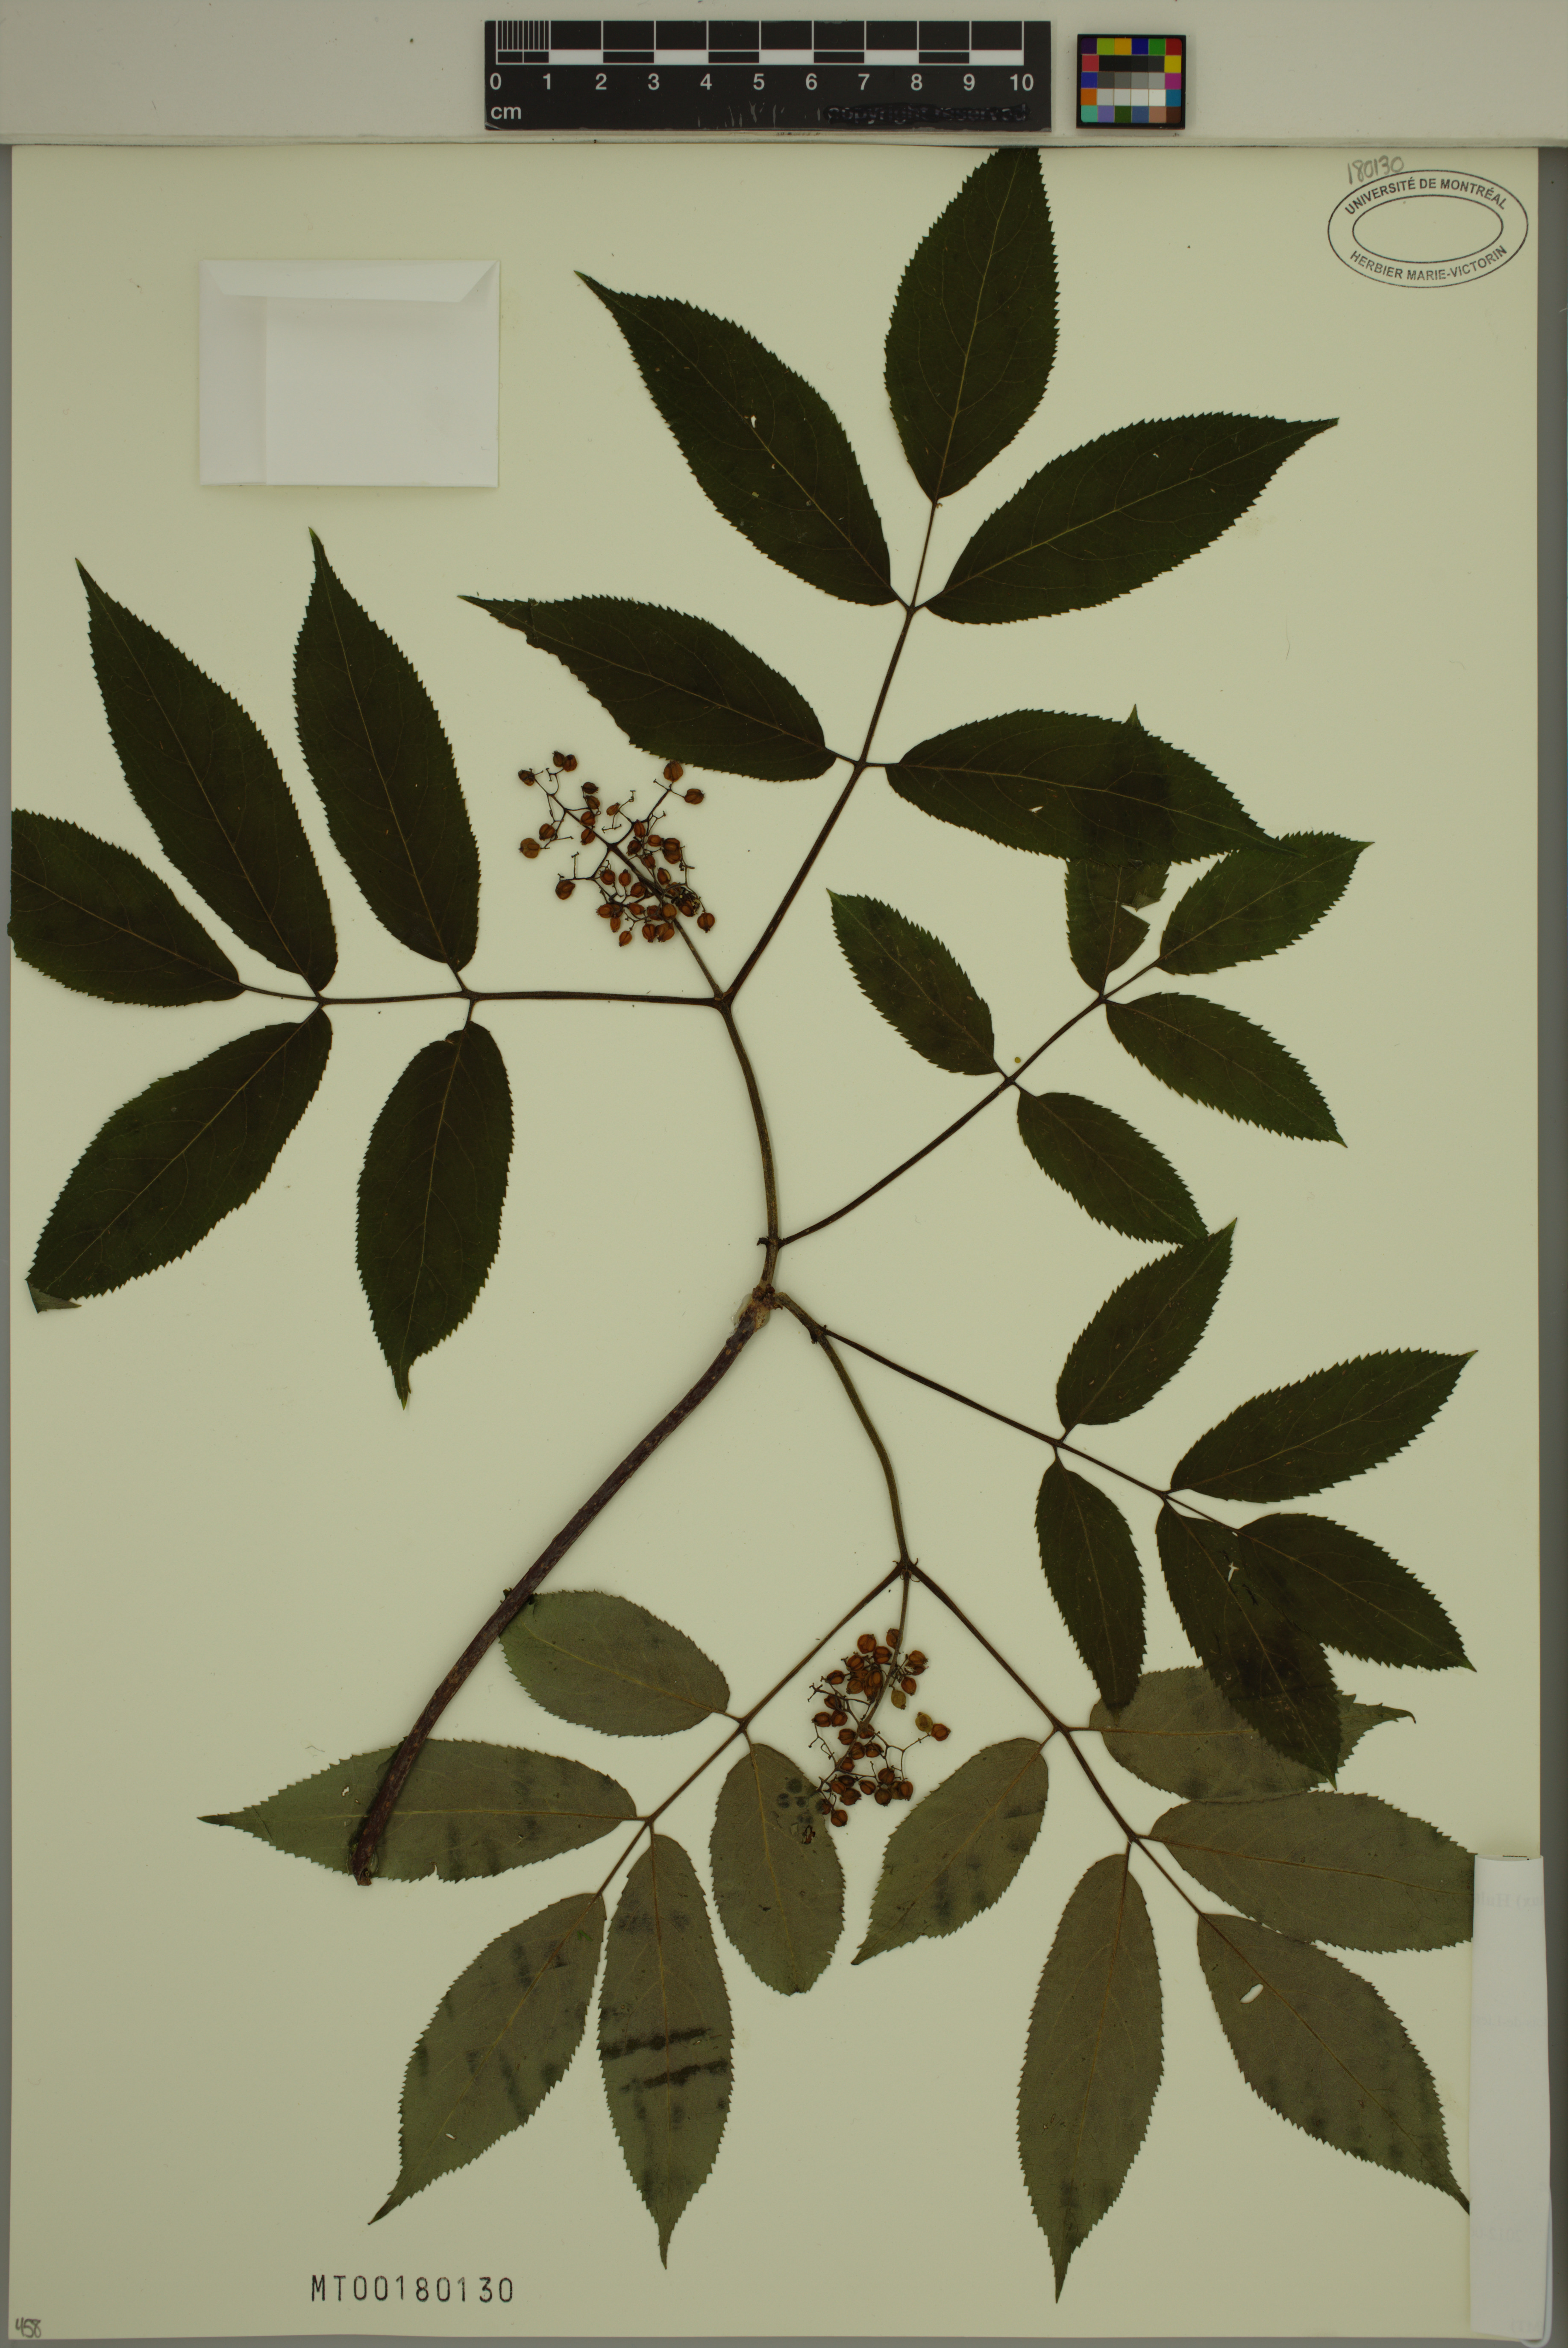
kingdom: Plantae
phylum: Tracheophyta
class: Magnoliopsida
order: Dipsacales
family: Viburnaceae
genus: Sambucus
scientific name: Sambucus racemosa
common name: Red-berried elder
